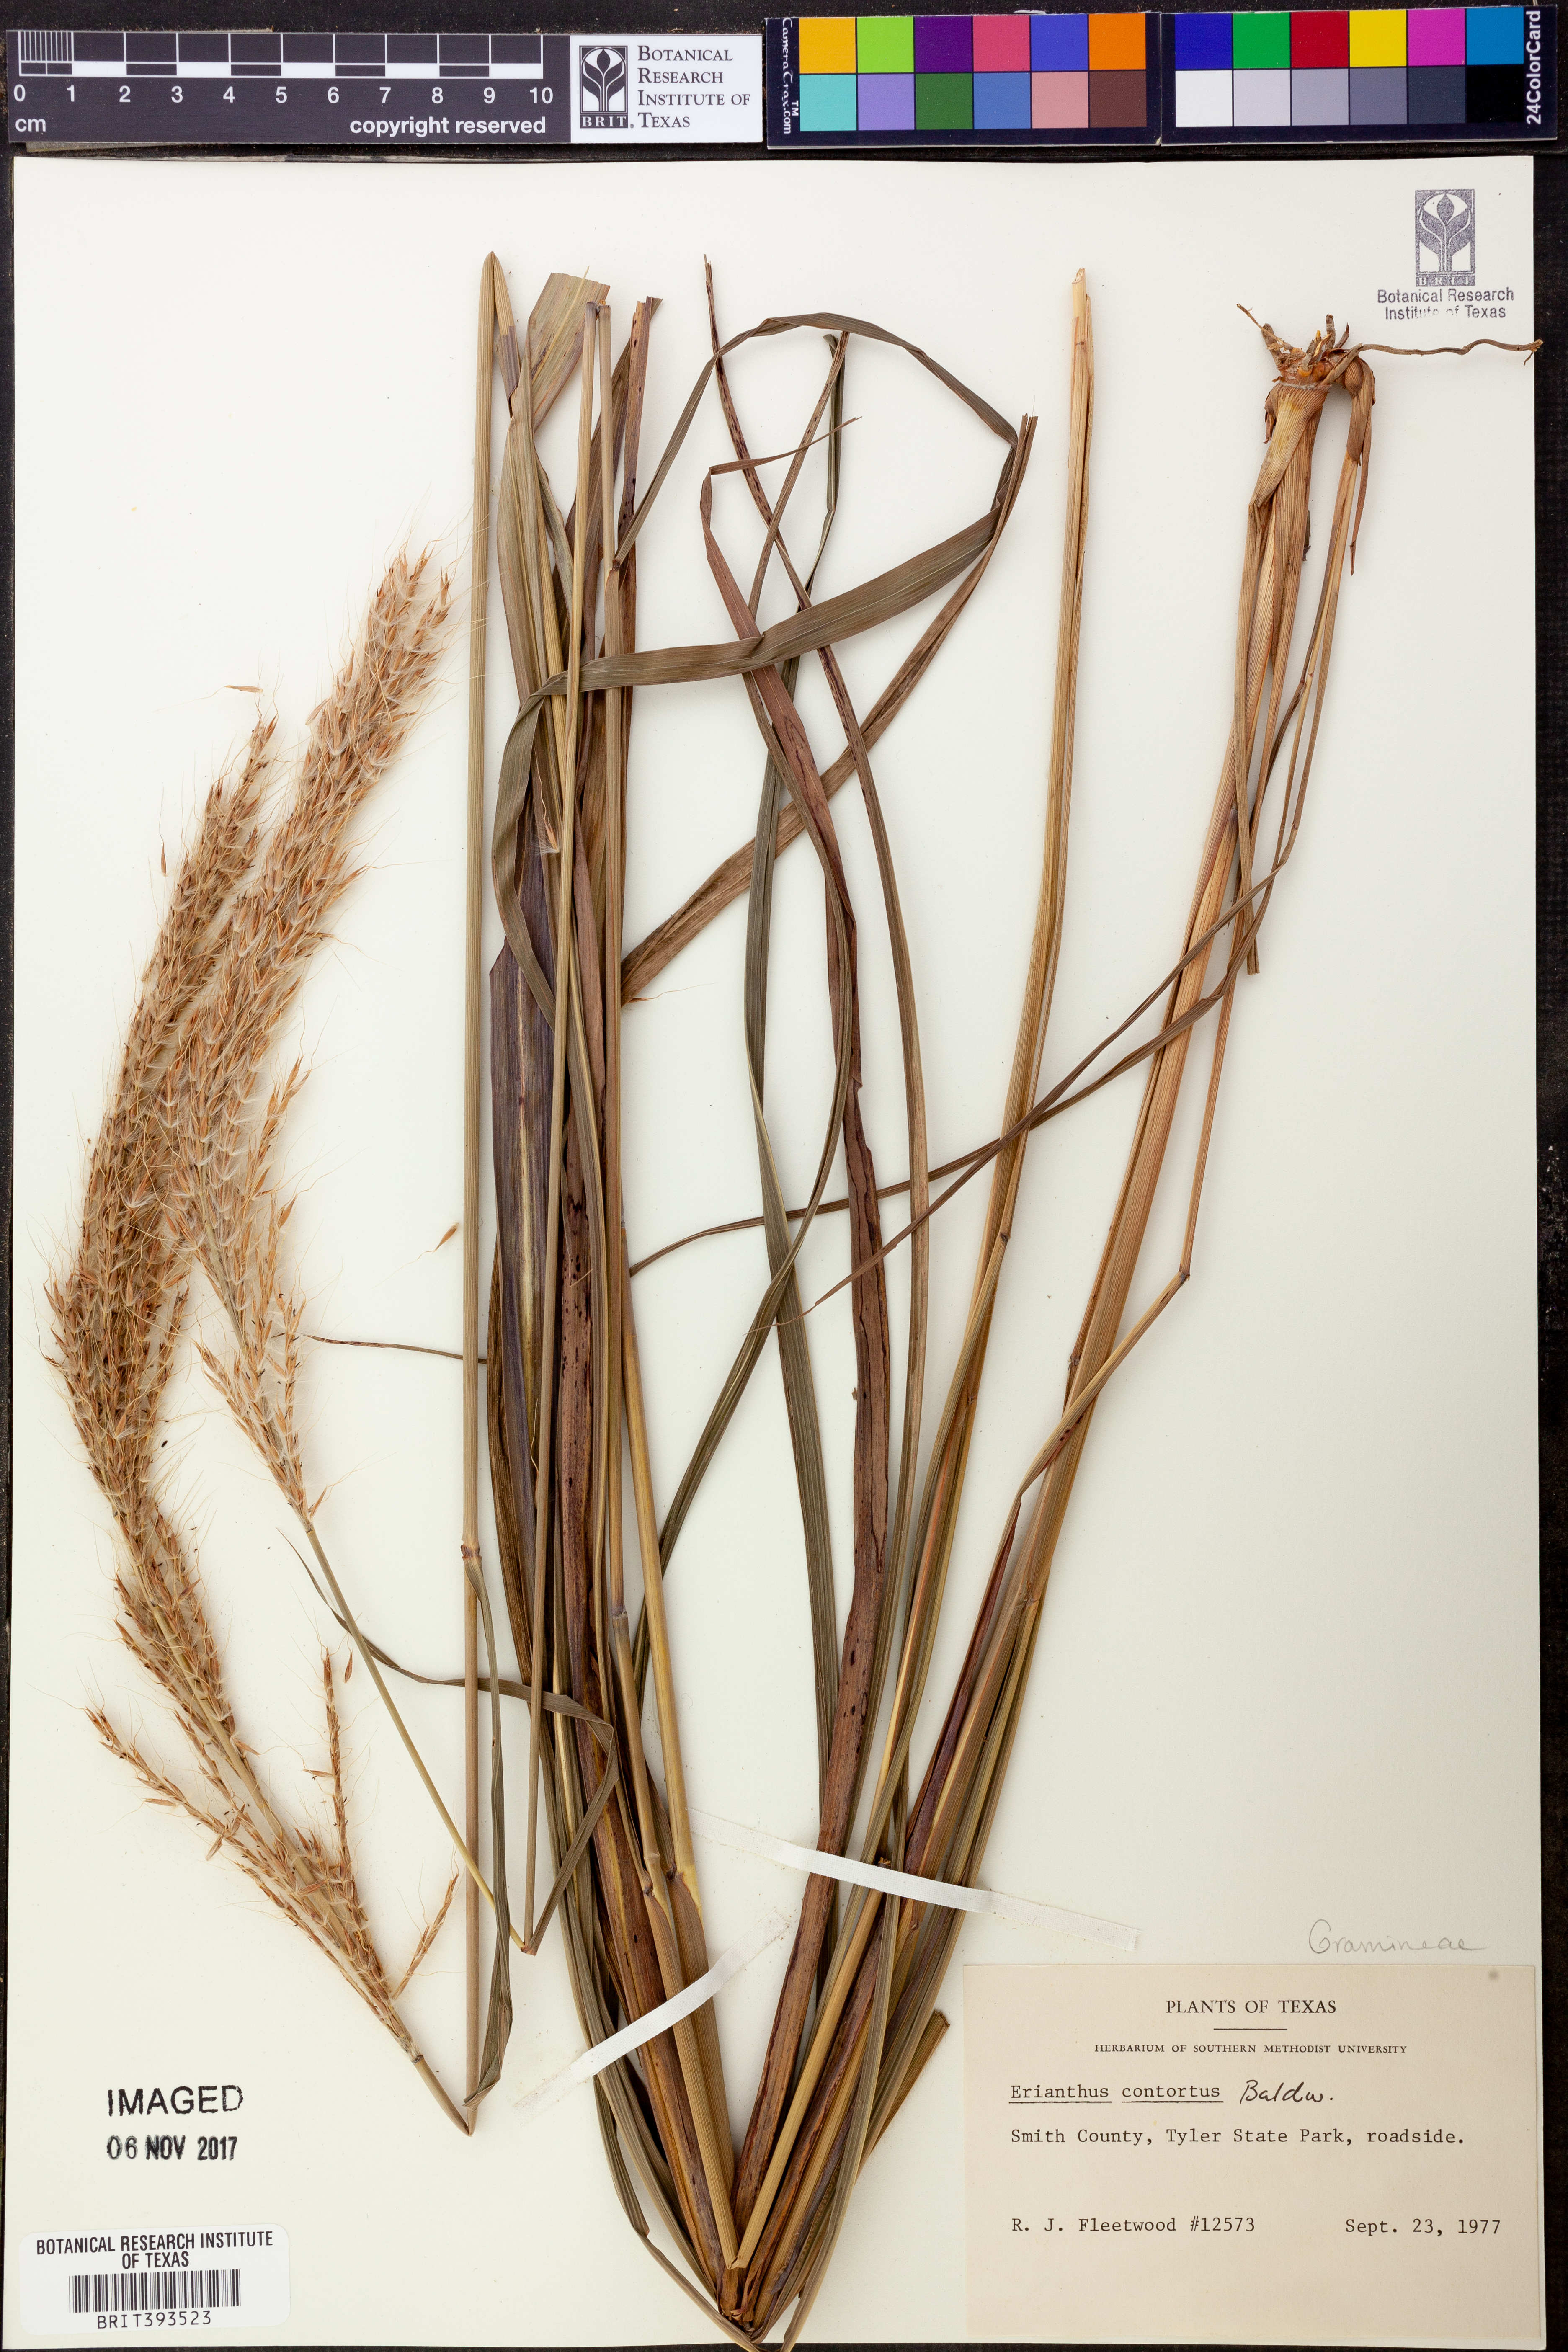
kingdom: Plantae
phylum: Tracheophyta
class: Liliopsida
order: Poales
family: Poaceae
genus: Erianthus
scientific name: Erianthus contortus
